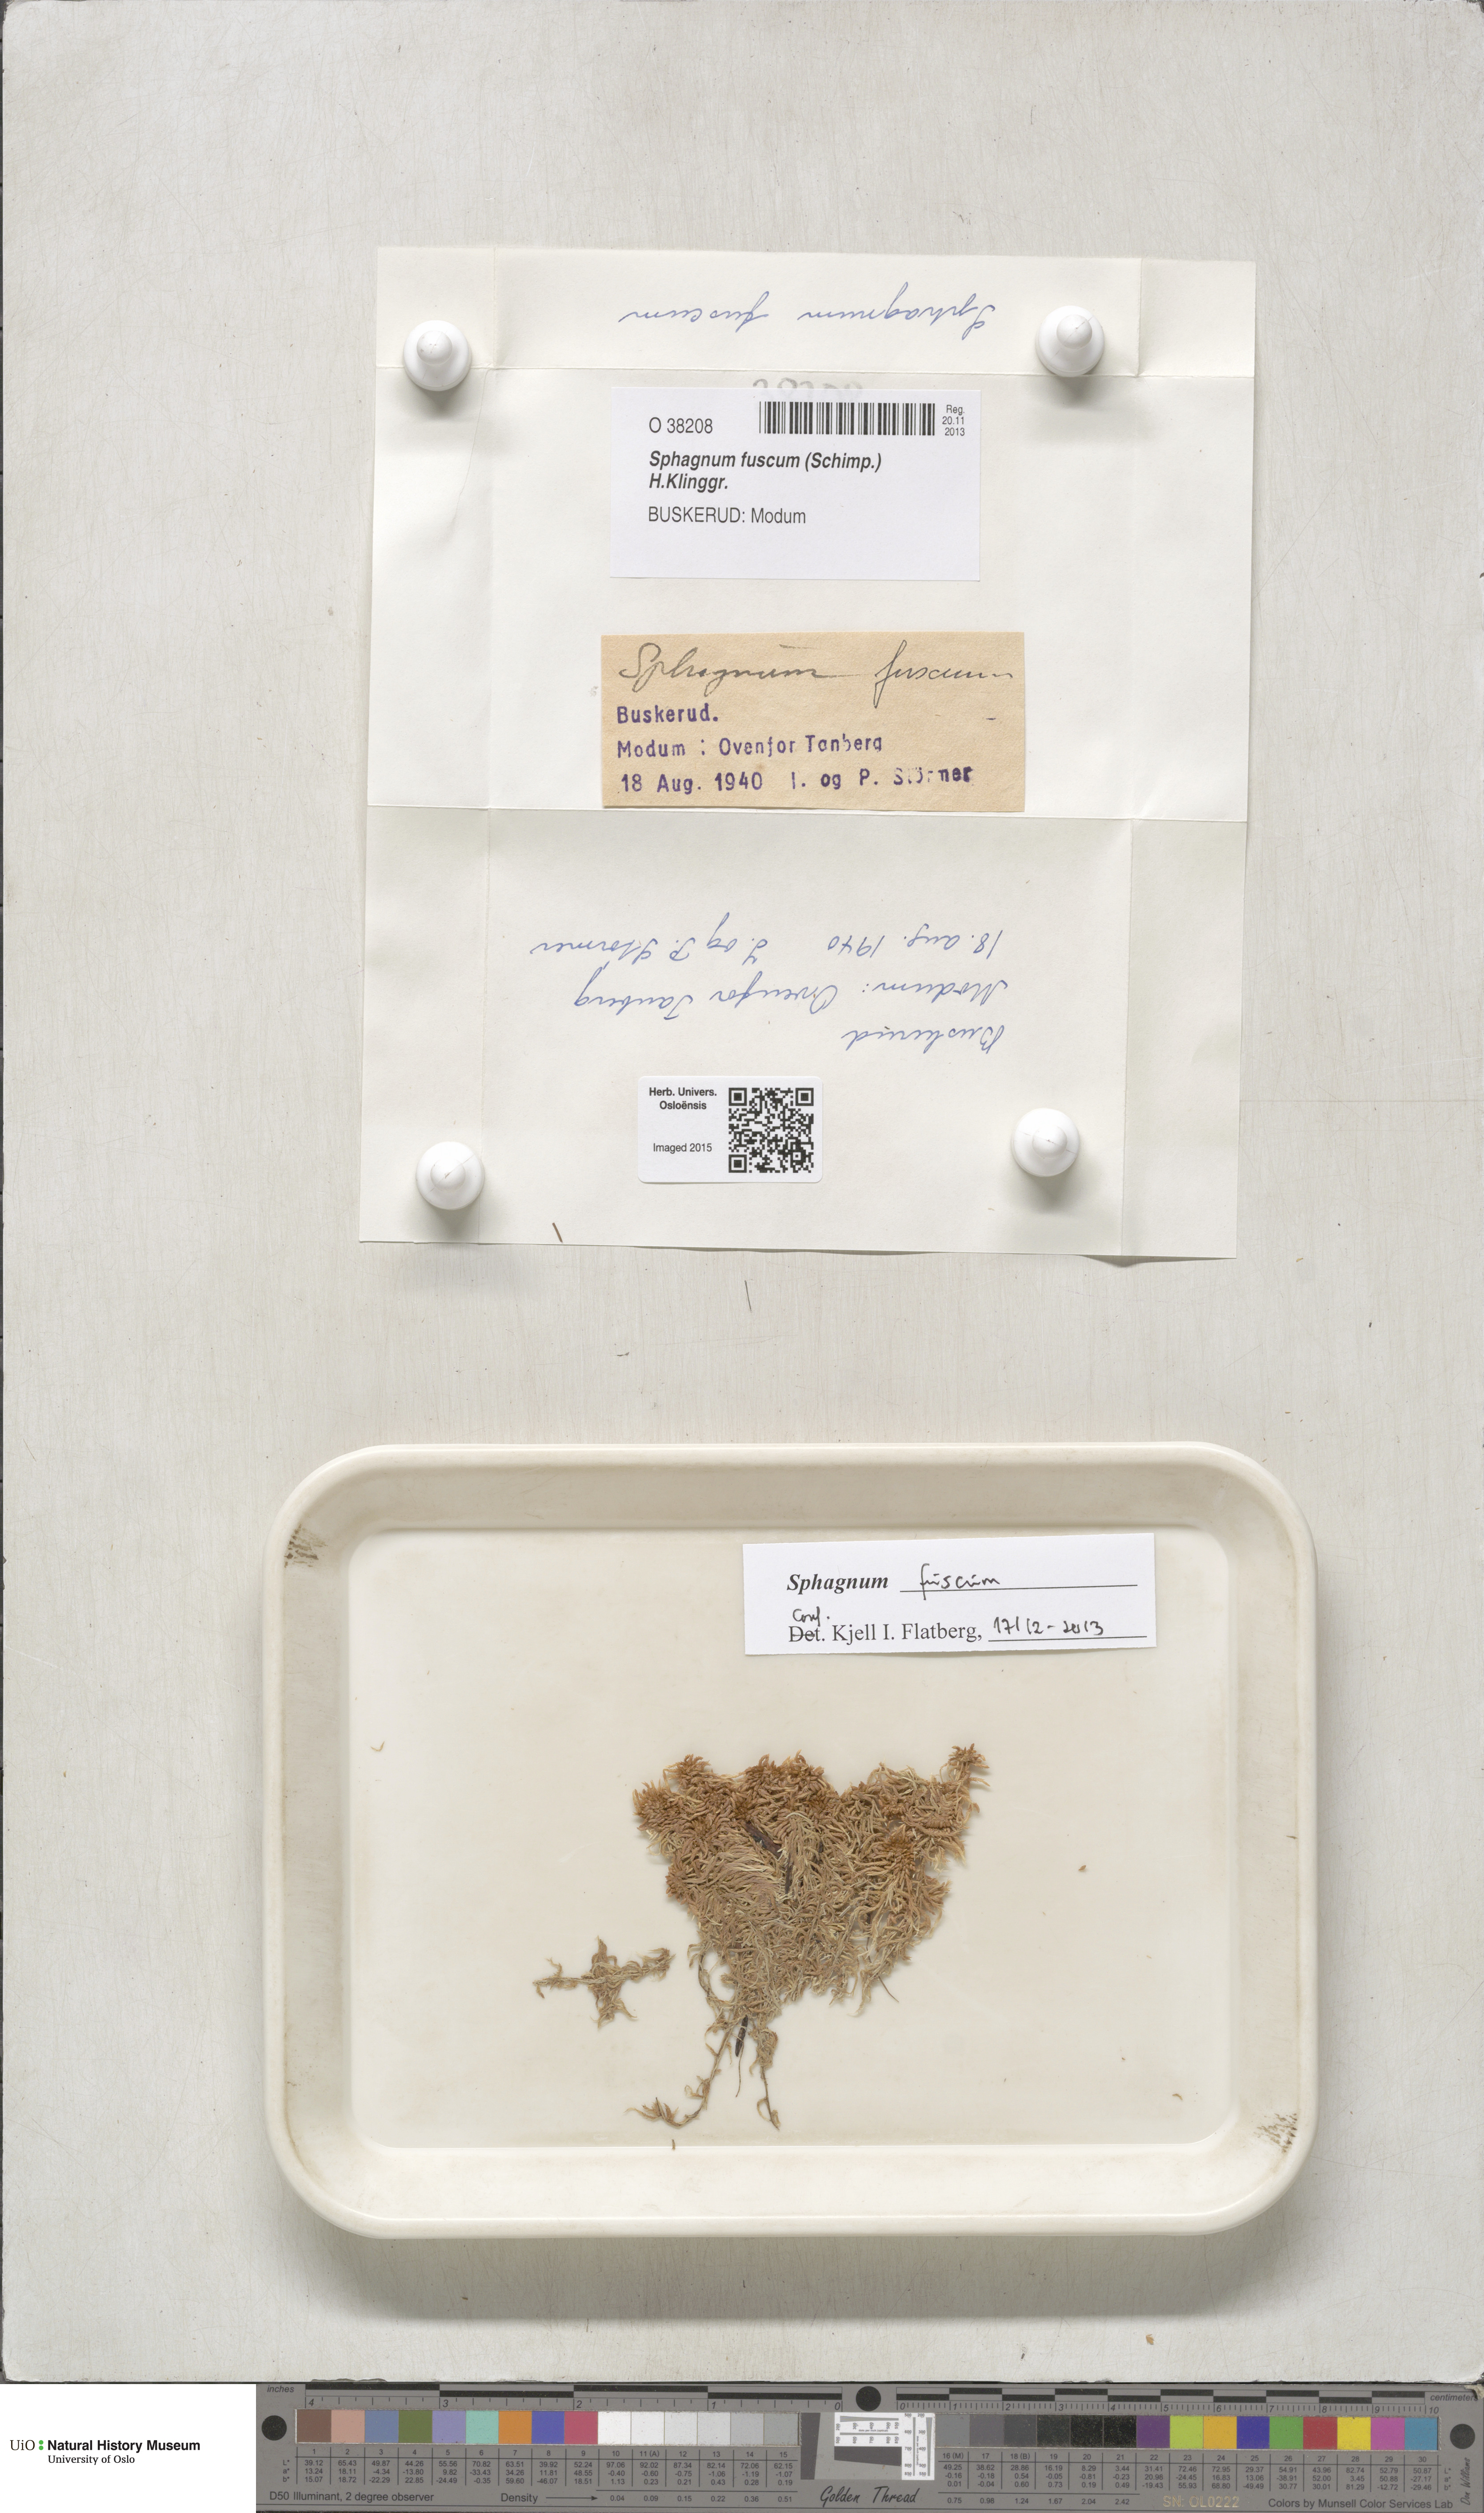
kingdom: Plantae
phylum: Bryophyta
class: Sphagnopsida
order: Sphagnales
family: Sphagnaceae
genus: Sphagnum
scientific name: Sphagnum fuscum
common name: Brown peat moss
